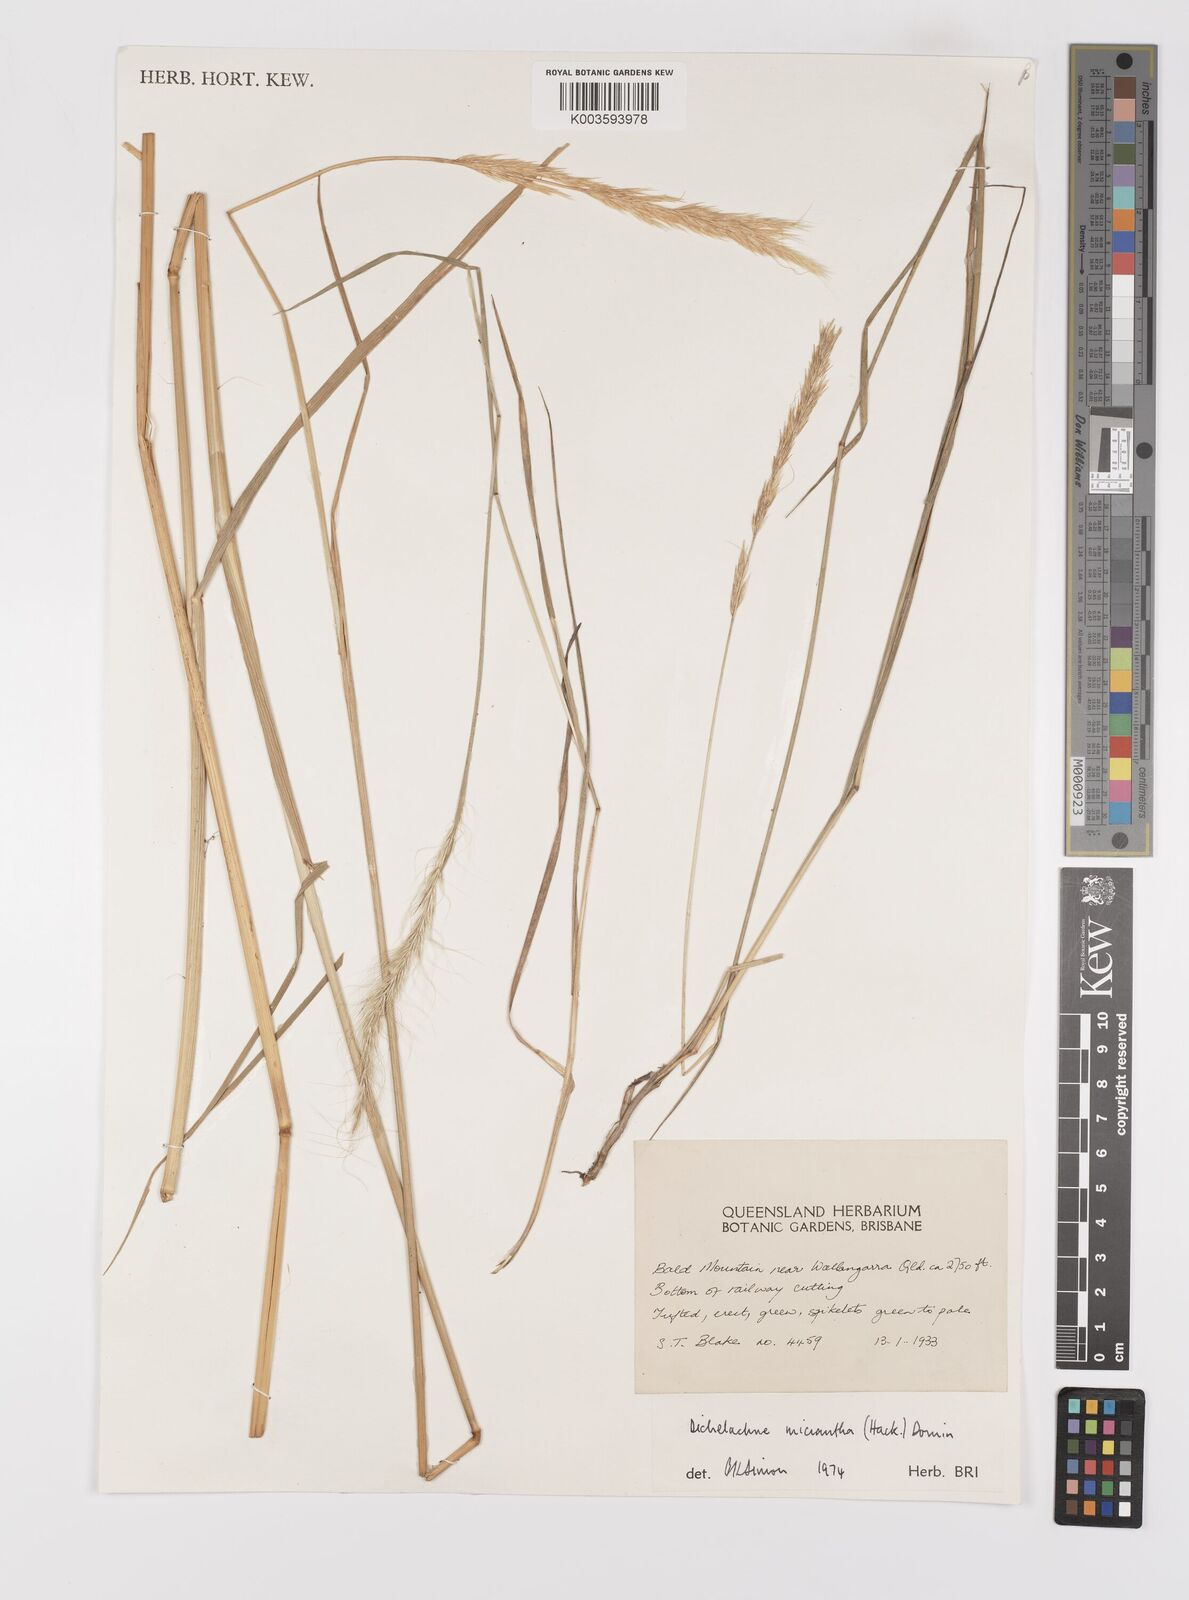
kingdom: Plantae
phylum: Tracheophyta
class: Liliopsida
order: Poales
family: Poaceae
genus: Dichelachne
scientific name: Dichelachne micrantha
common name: Plumegrass
